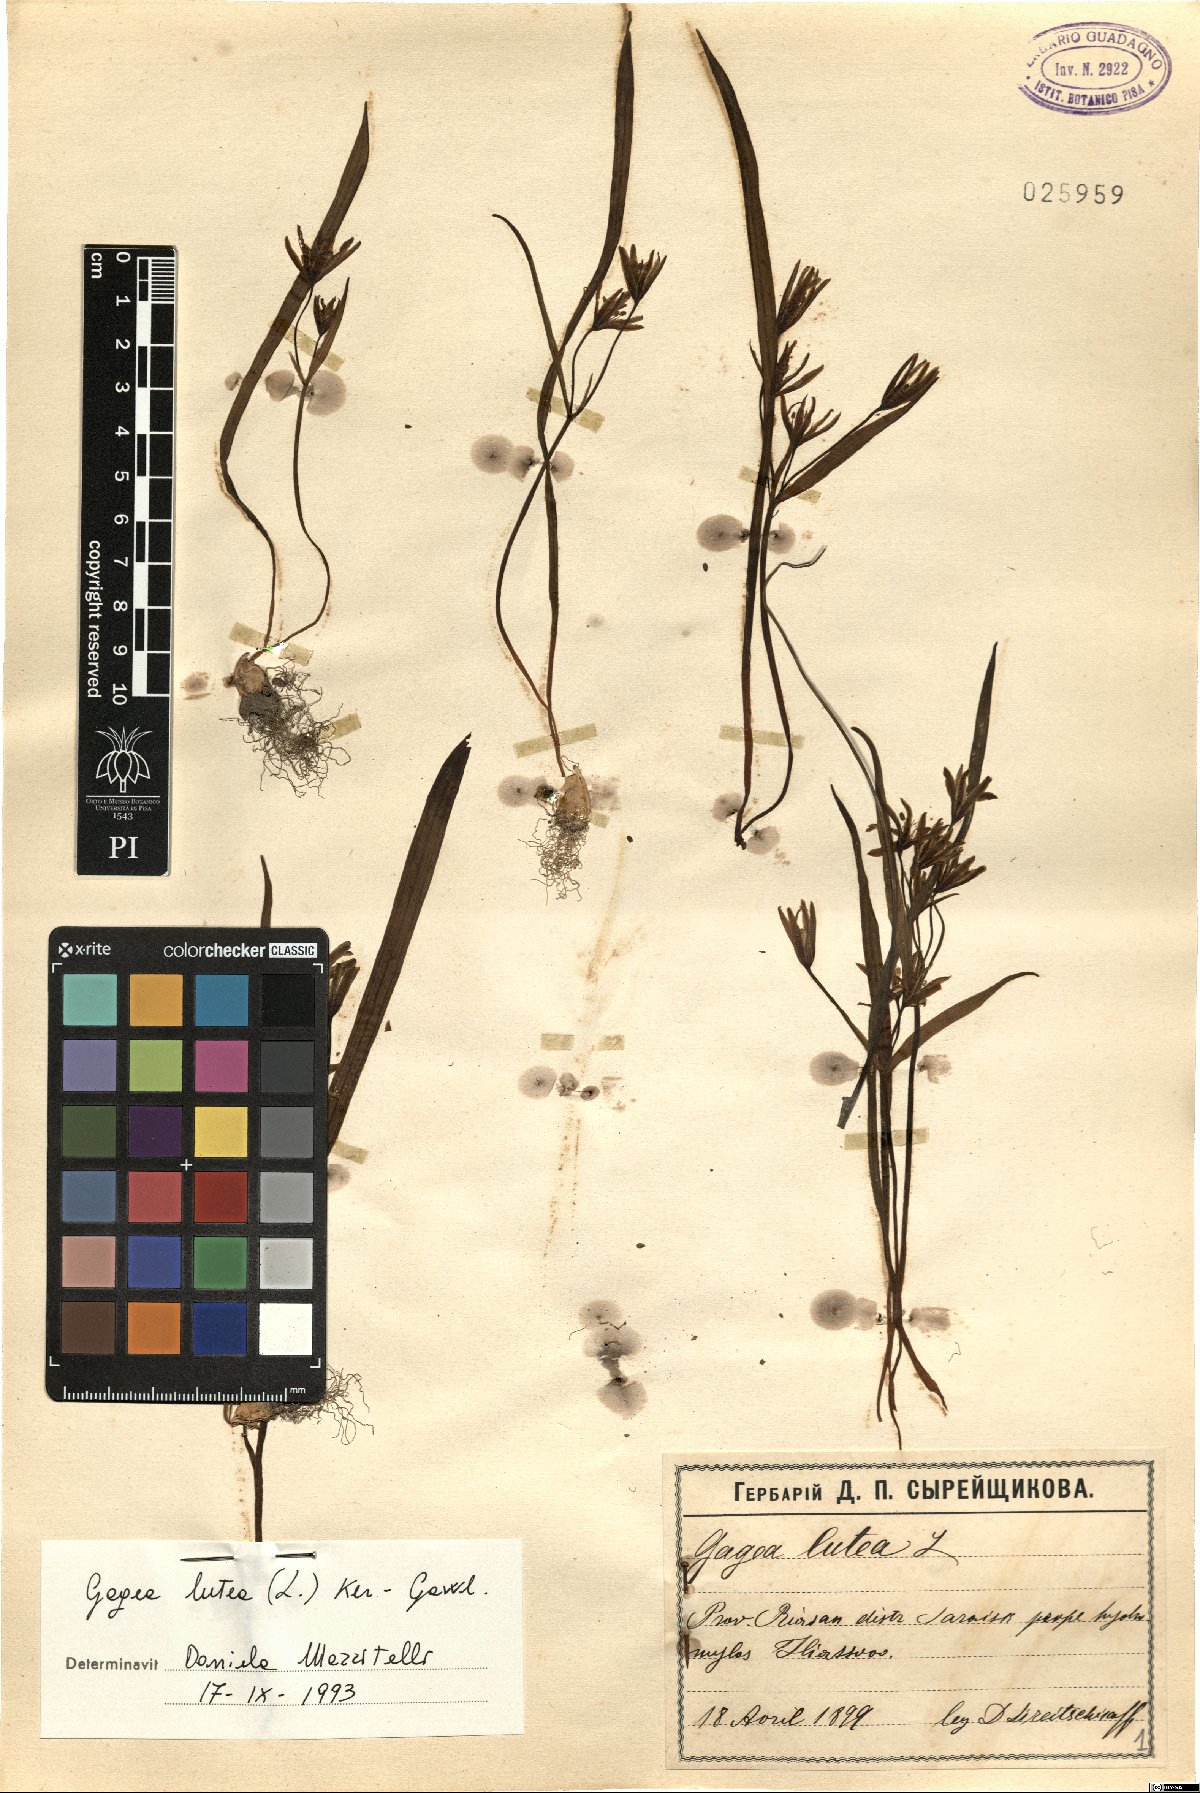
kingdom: Plantae
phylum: Tracheophyta
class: Liliopsida
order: Liliales
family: Liliaceae
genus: Gagea
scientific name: Gagea lutea
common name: Yellow star-of-bethlehem
